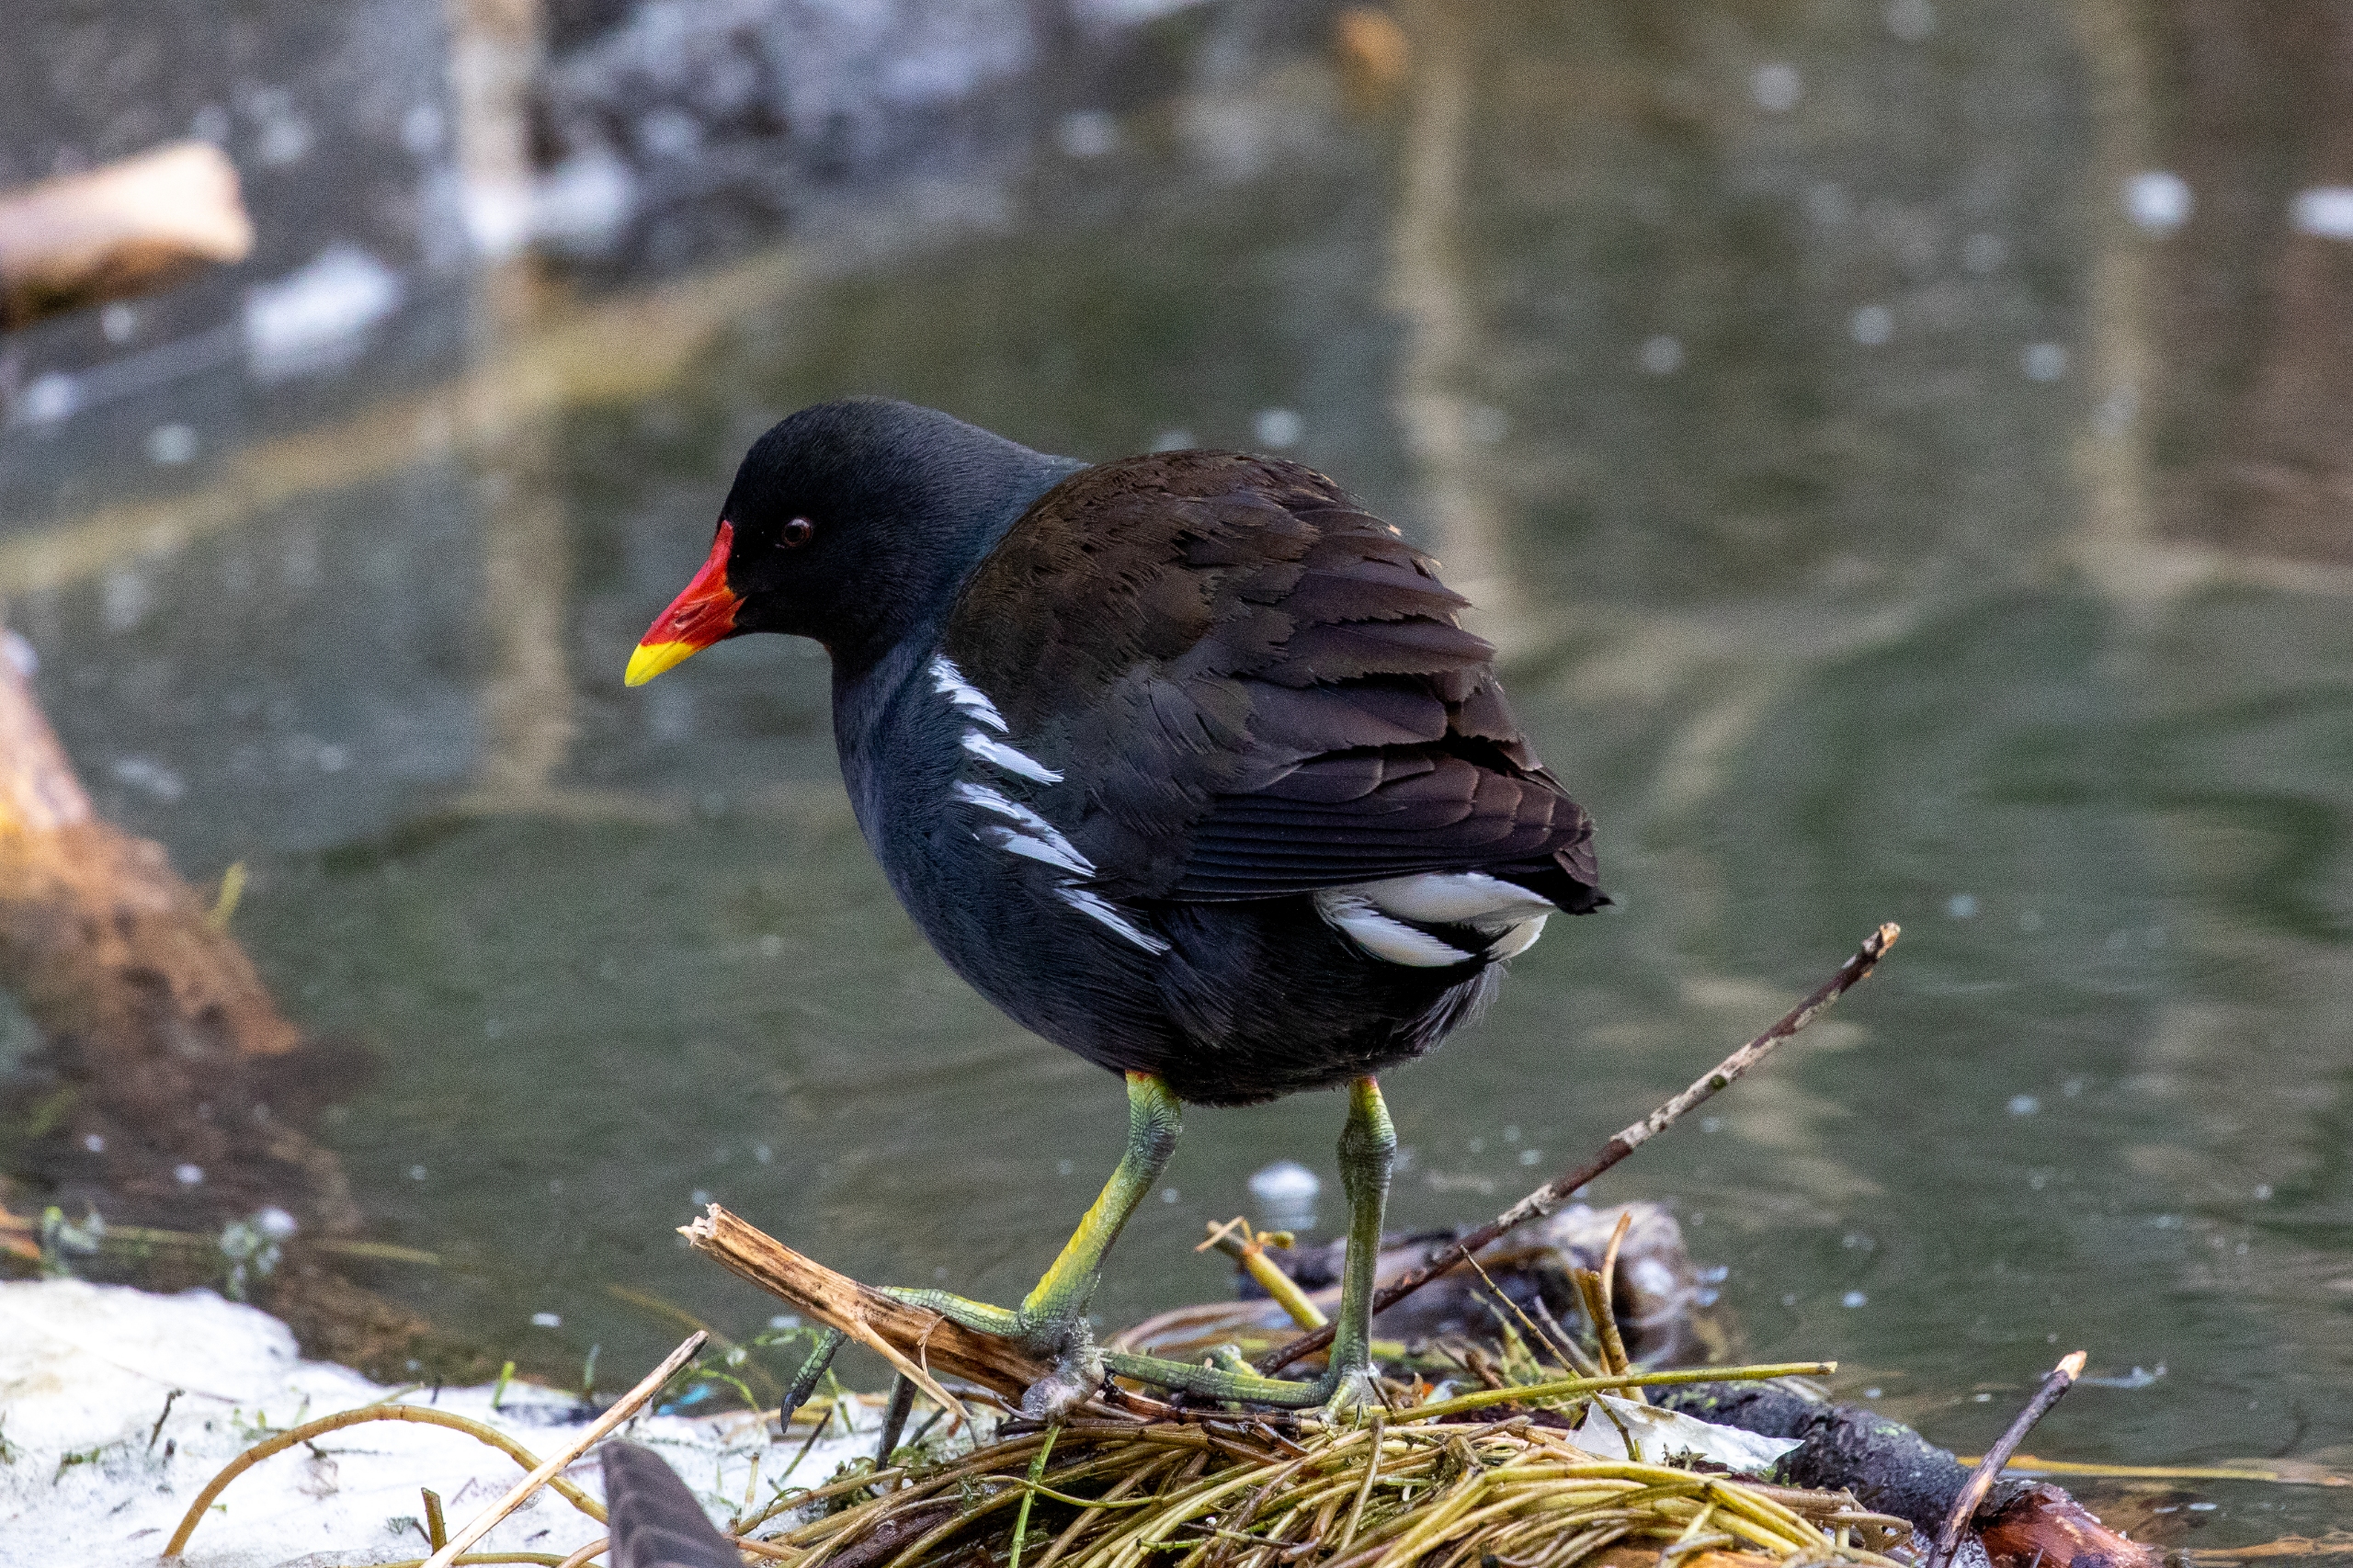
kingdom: Animalia
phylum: Chordata
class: Aves
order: Gruiformes
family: Rallidae
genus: Gallinula
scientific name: Gallinula chloropus
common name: Grønbenet rørhøne
